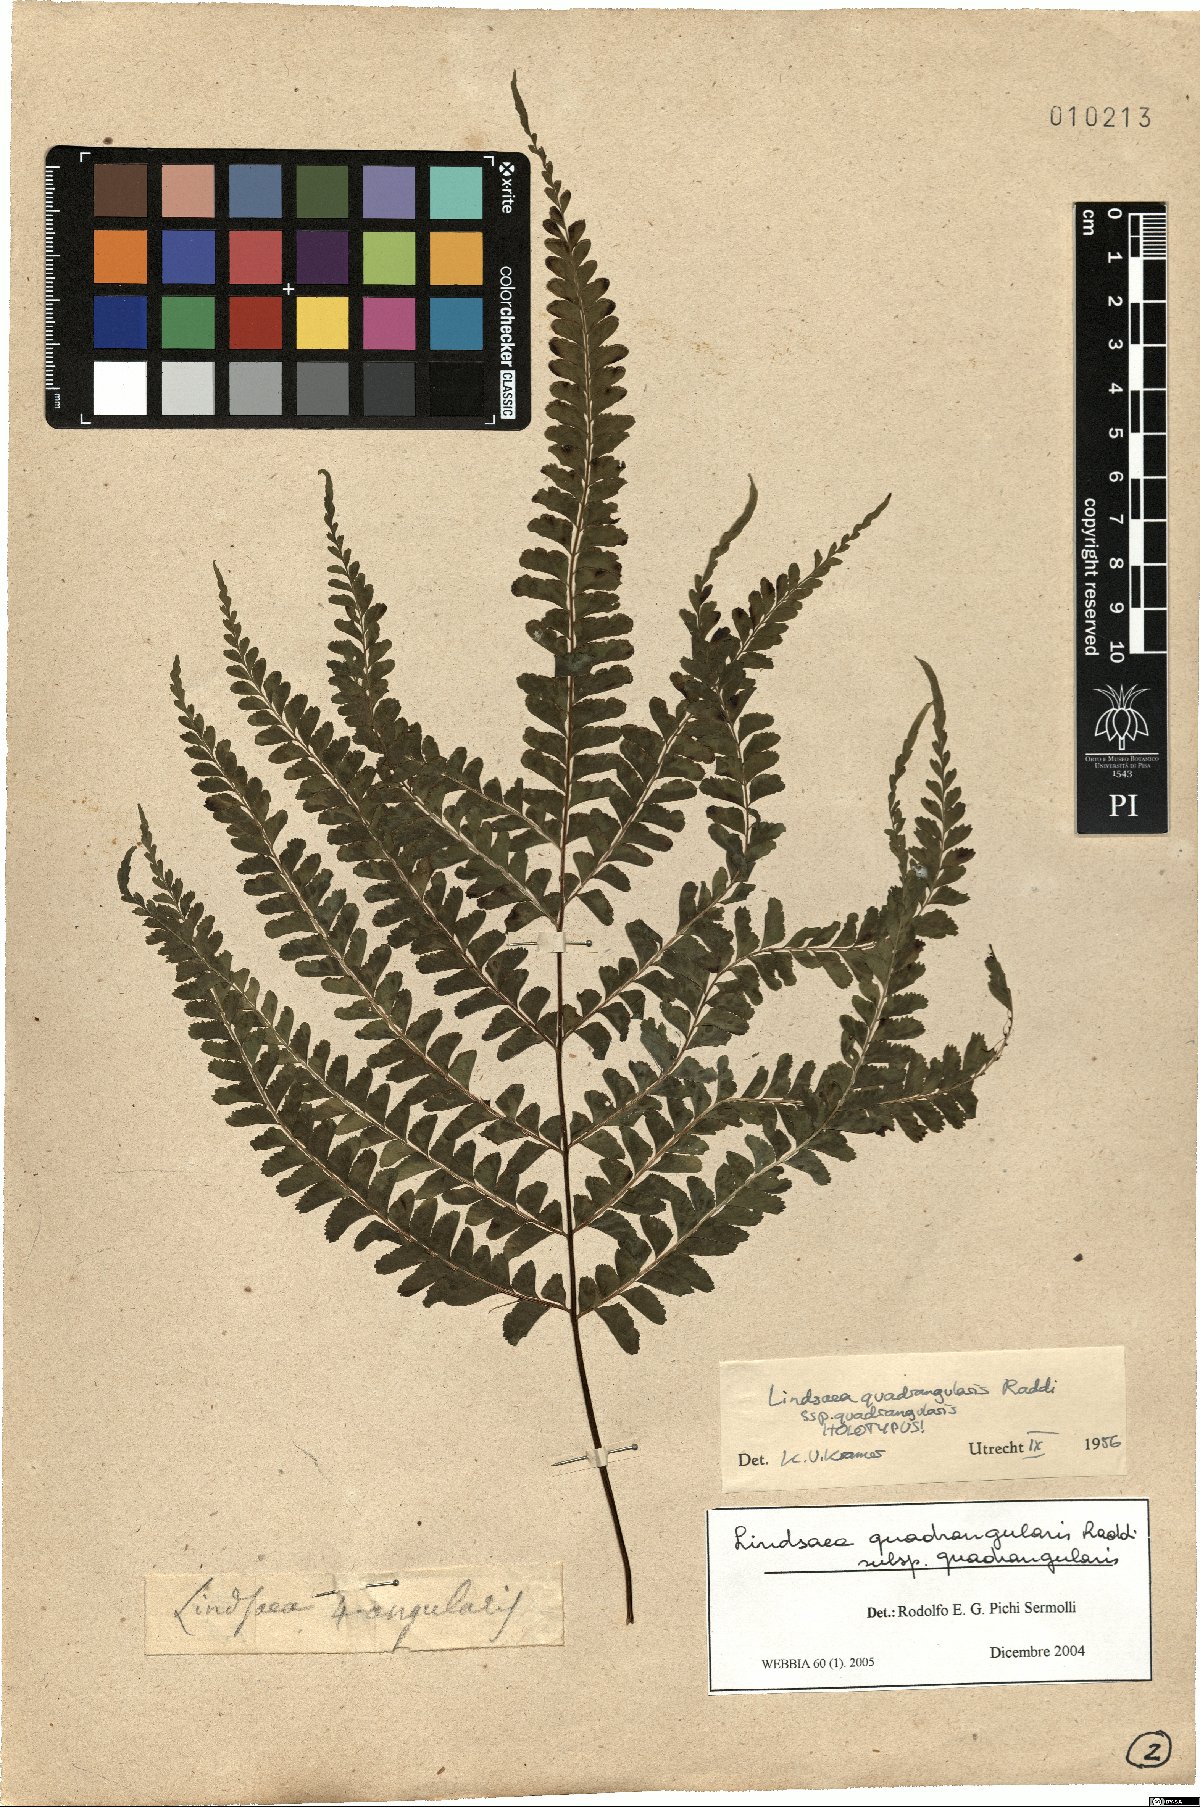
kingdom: Plantae
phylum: Tracheophyta
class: Polypodiopsida
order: Polypodiales
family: Lindsaeaceae
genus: Lindsaea
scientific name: Lindsaea quadrangularis
